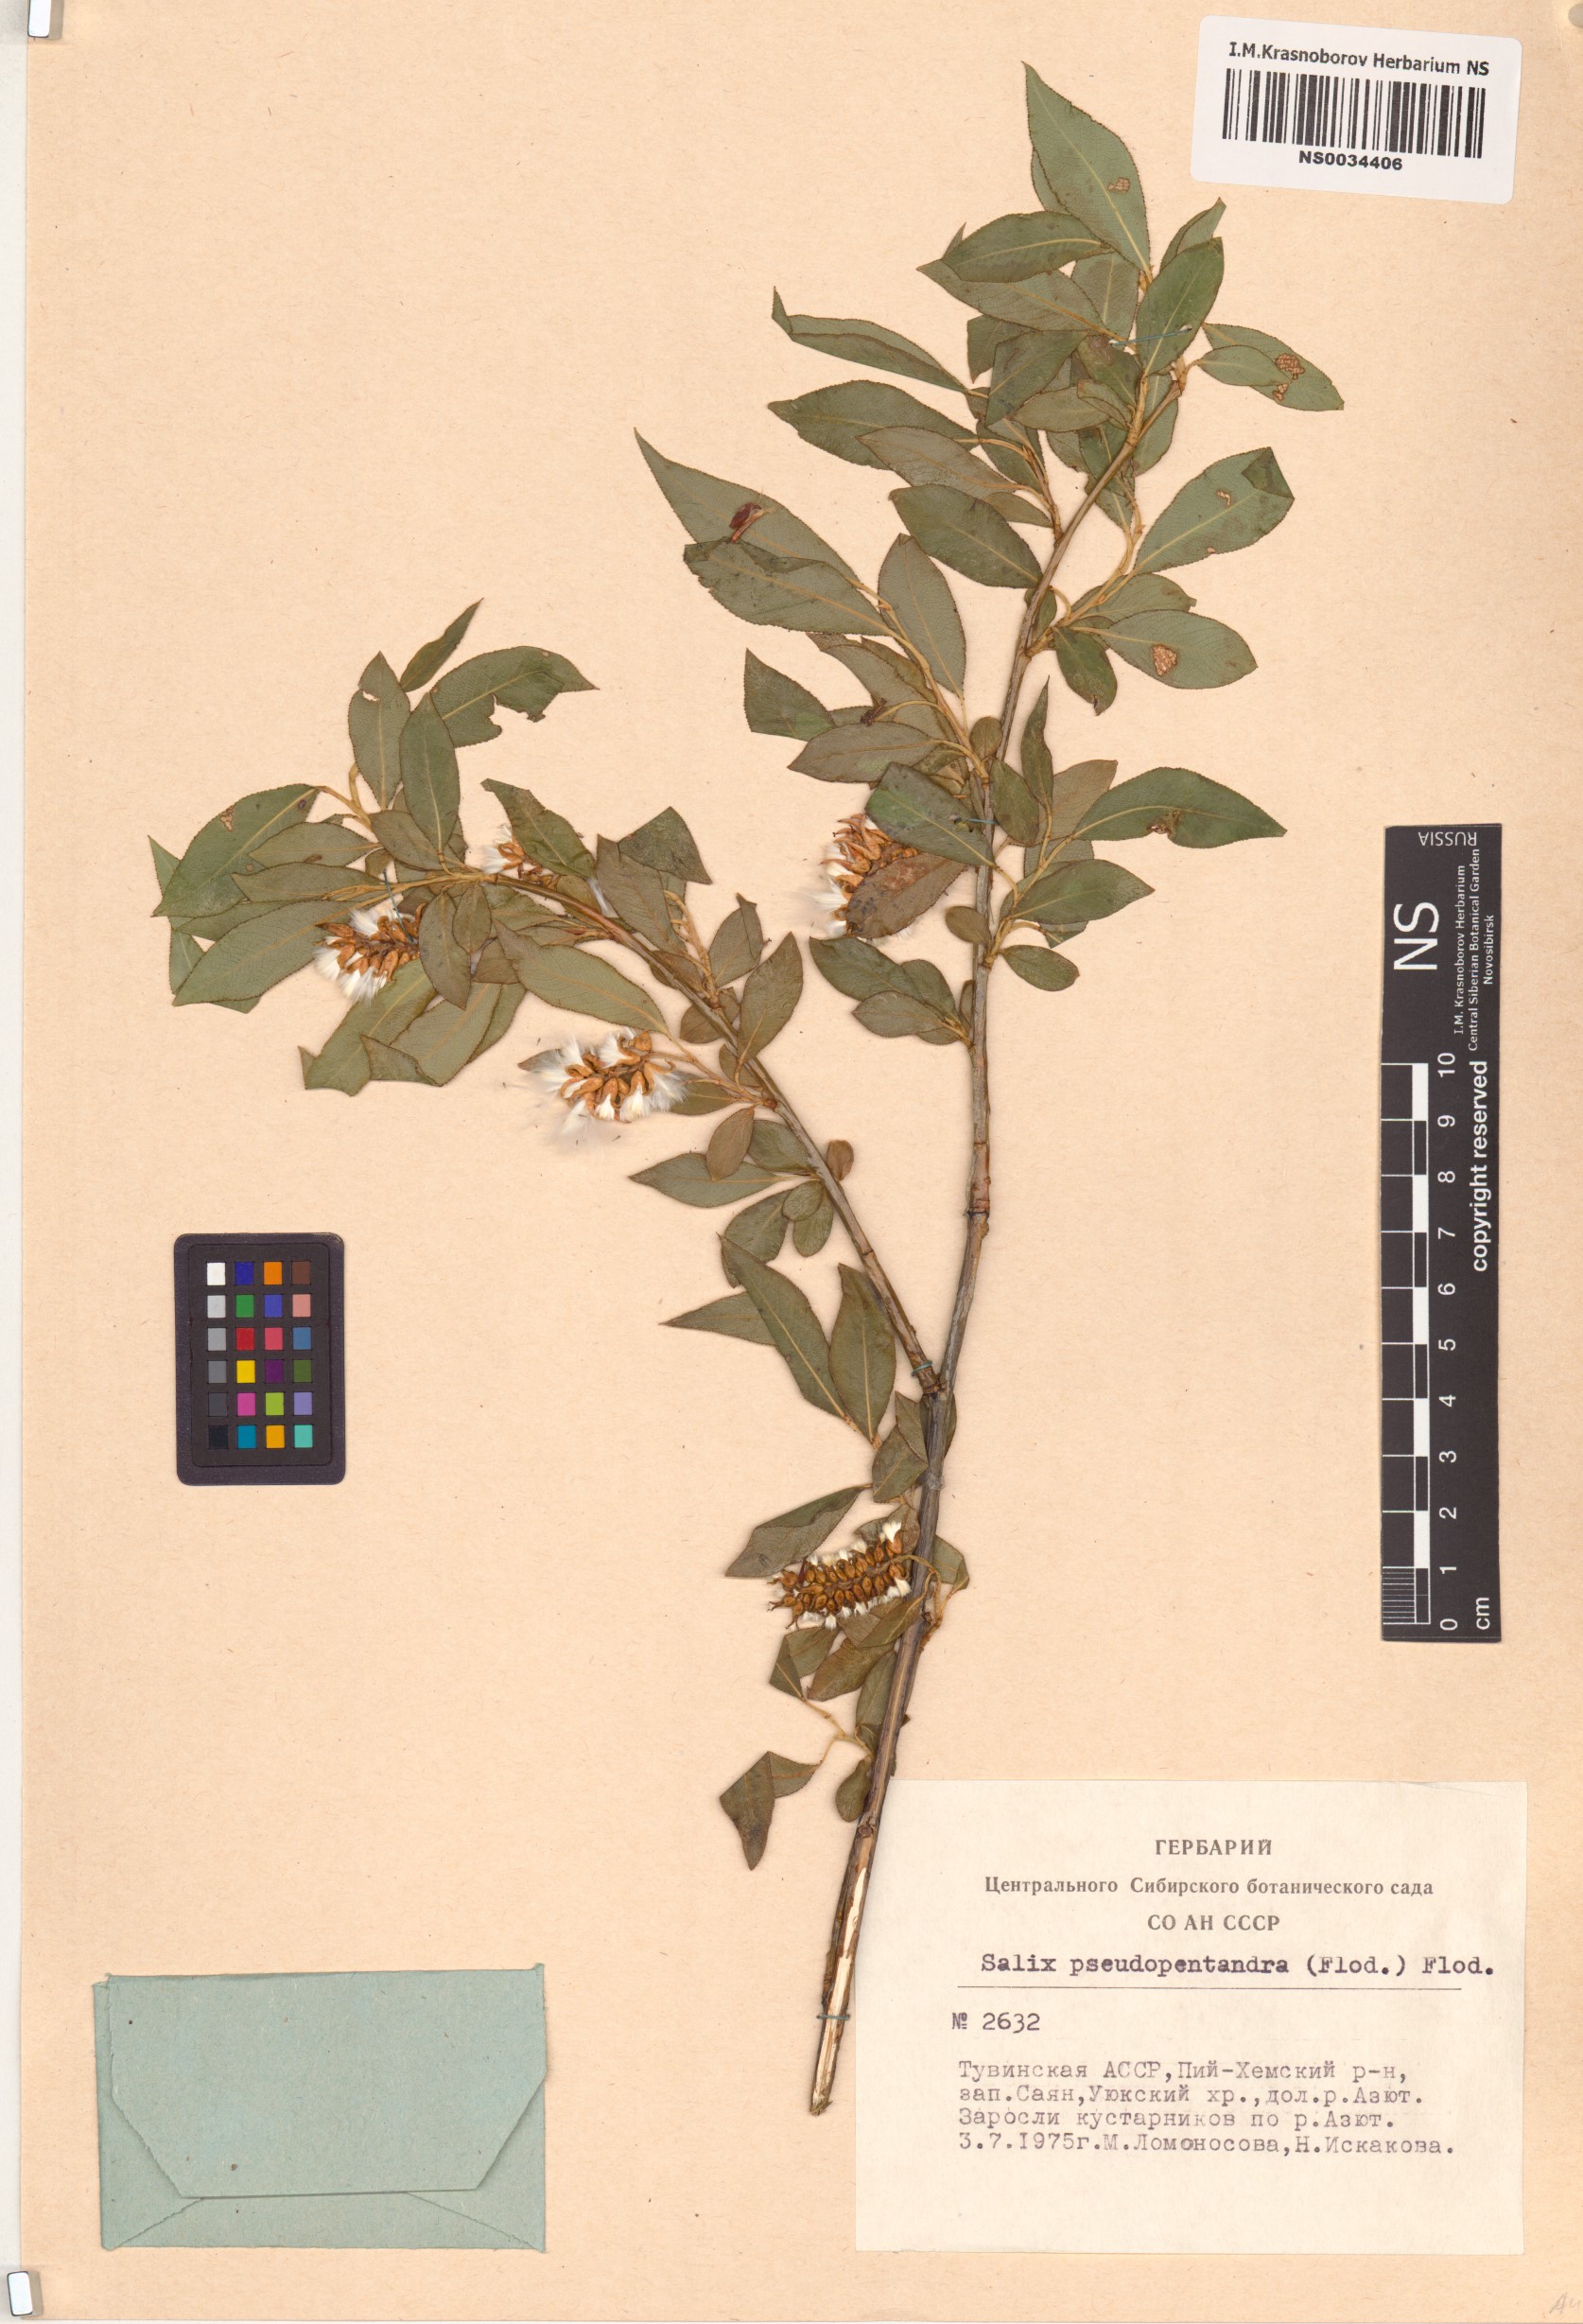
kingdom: Plantae
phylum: Tracheophyta
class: Magnoliopsida
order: Malpighiales
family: Salicaceae
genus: Salix
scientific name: Salix pseudopentandra
